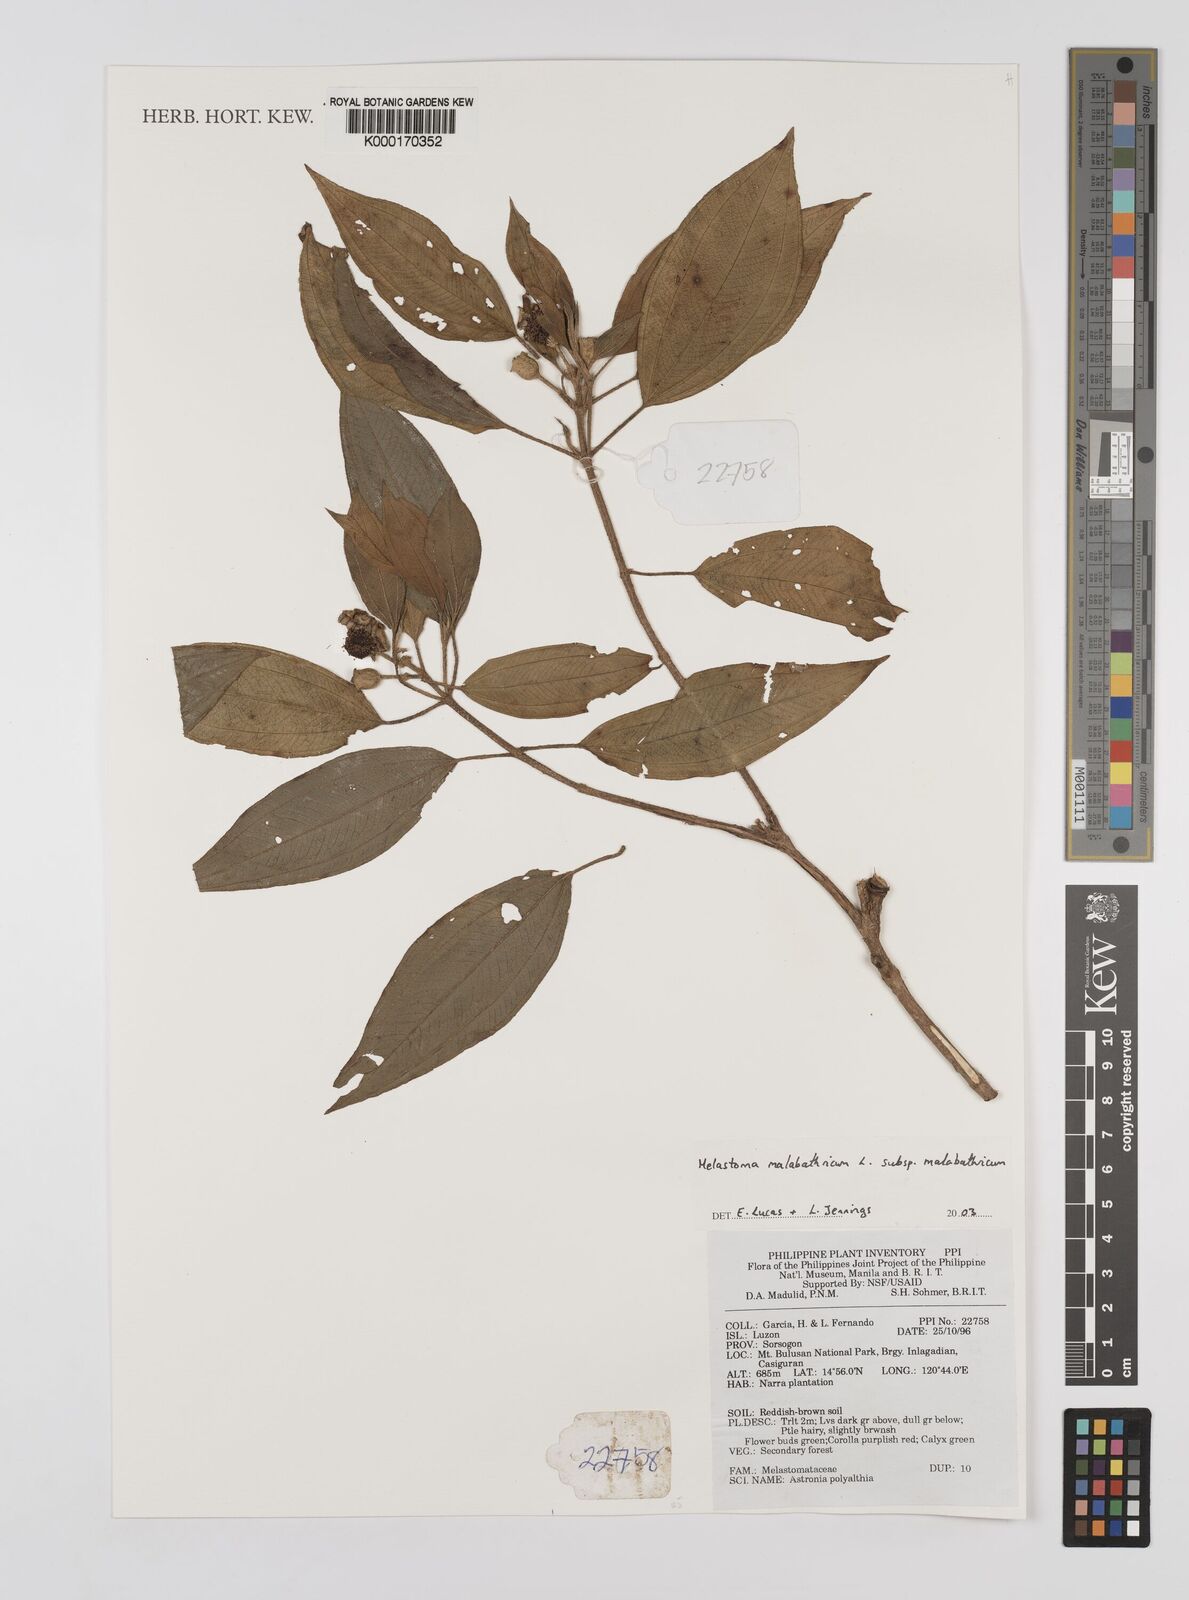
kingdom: Plantae
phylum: Tracheophyta
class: Magnoliopsida
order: Myrtales
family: Melastomataceae
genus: Melastoma
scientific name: Melastoma malabathricum
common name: Indian-rhododendron
